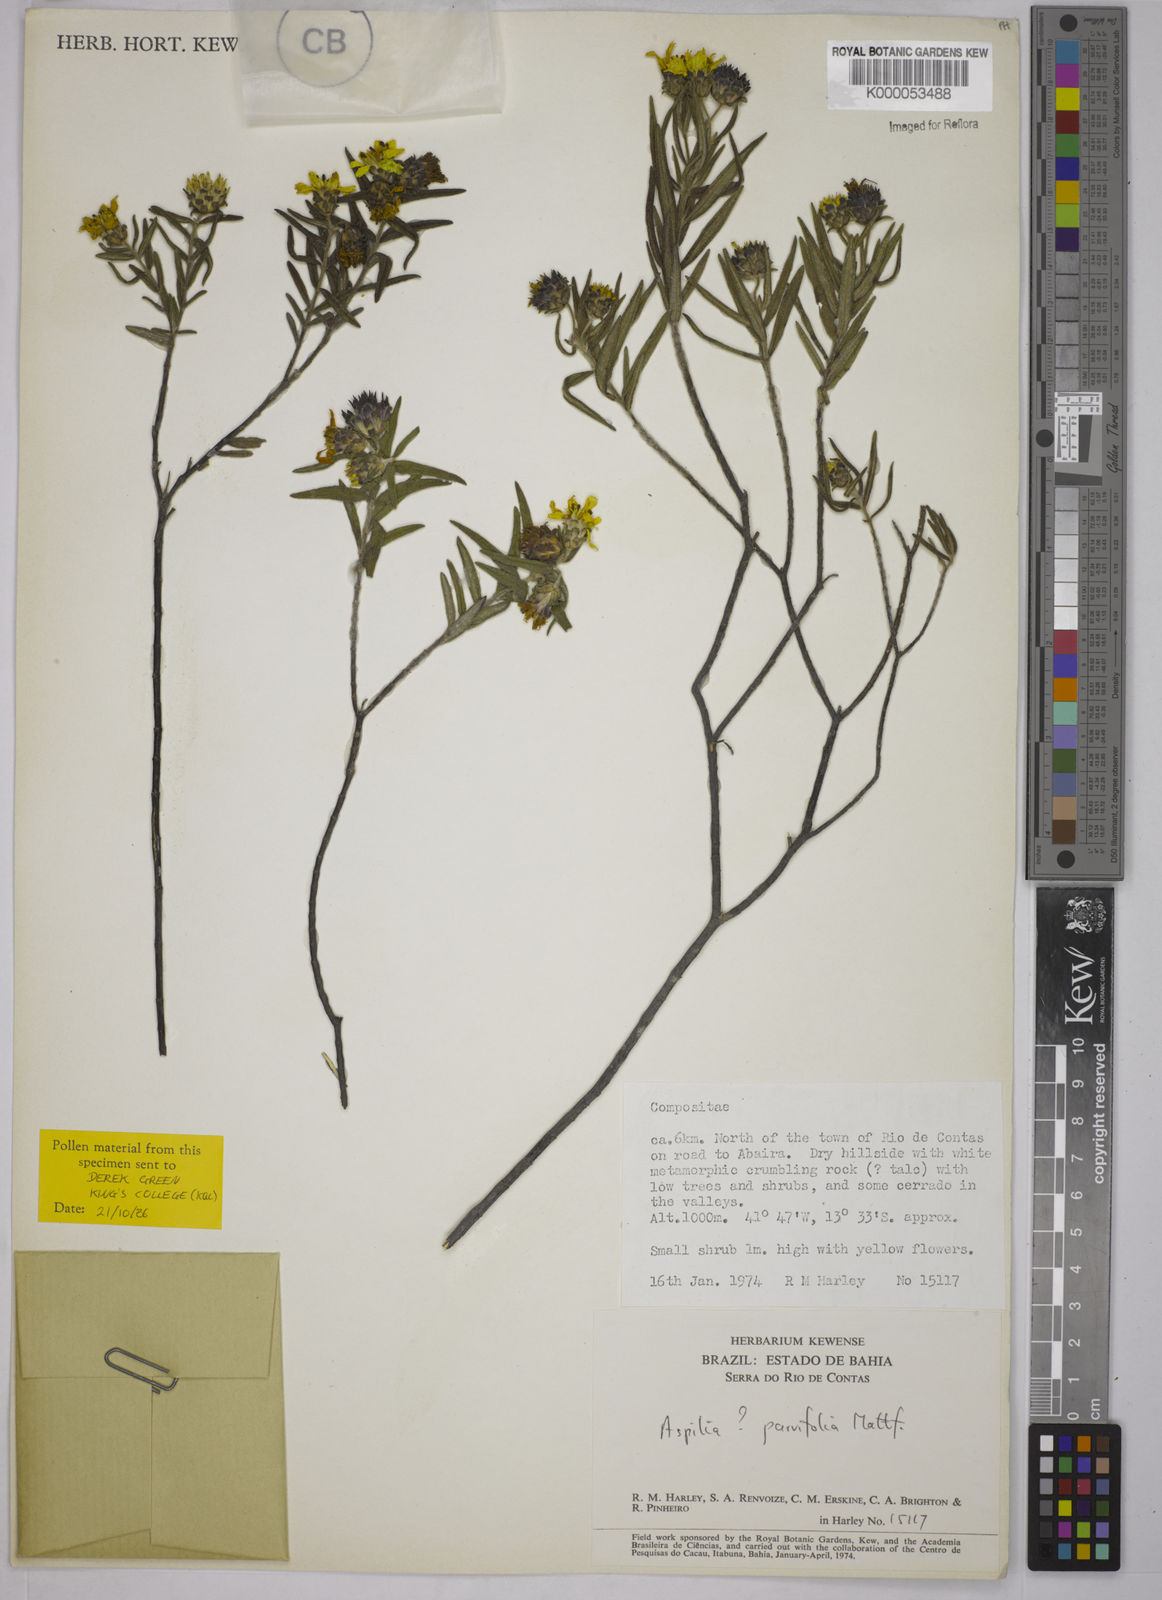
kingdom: Plantae
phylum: Tracheophyta
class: Magnoliopsida
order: Asterales
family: Asteraceae
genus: Aspilia
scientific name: Aspilia foliosa
